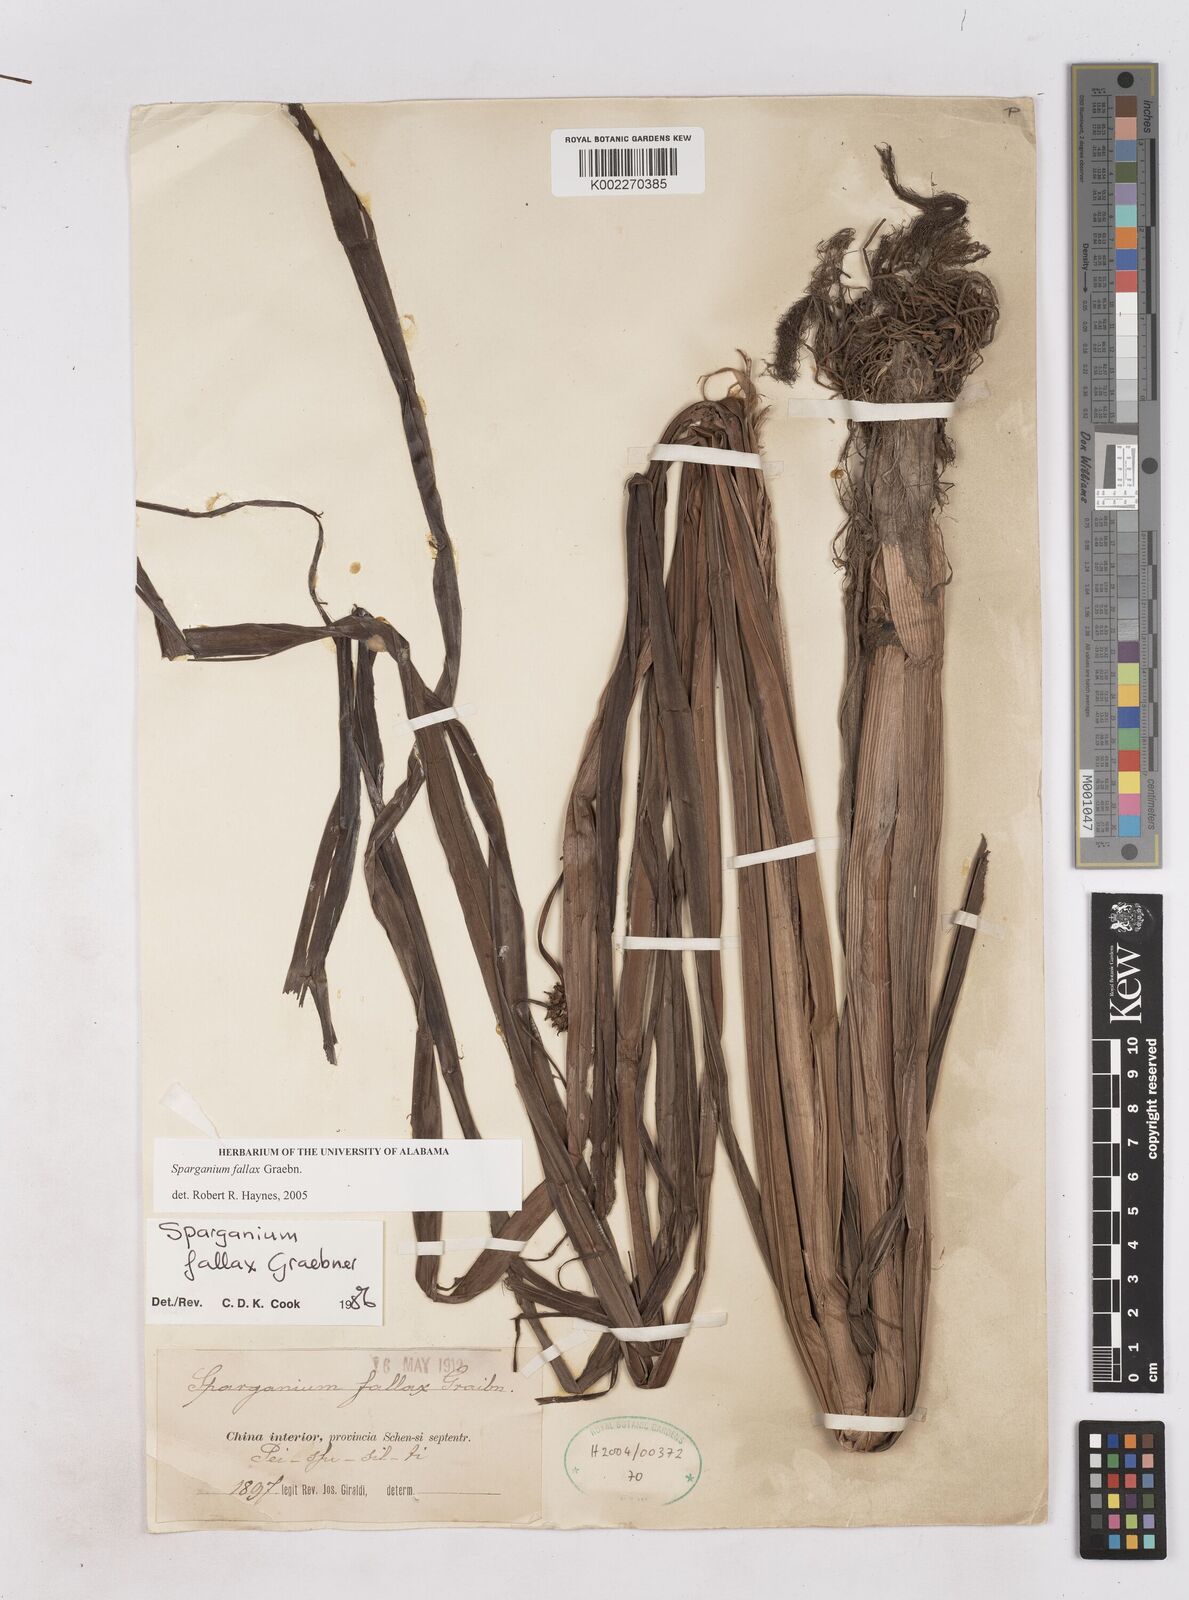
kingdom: Plantae
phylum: Tracheophyta
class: Liliopsida
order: Poales
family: Typhaceae
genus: Sparganium
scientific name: Sparganium fallax
